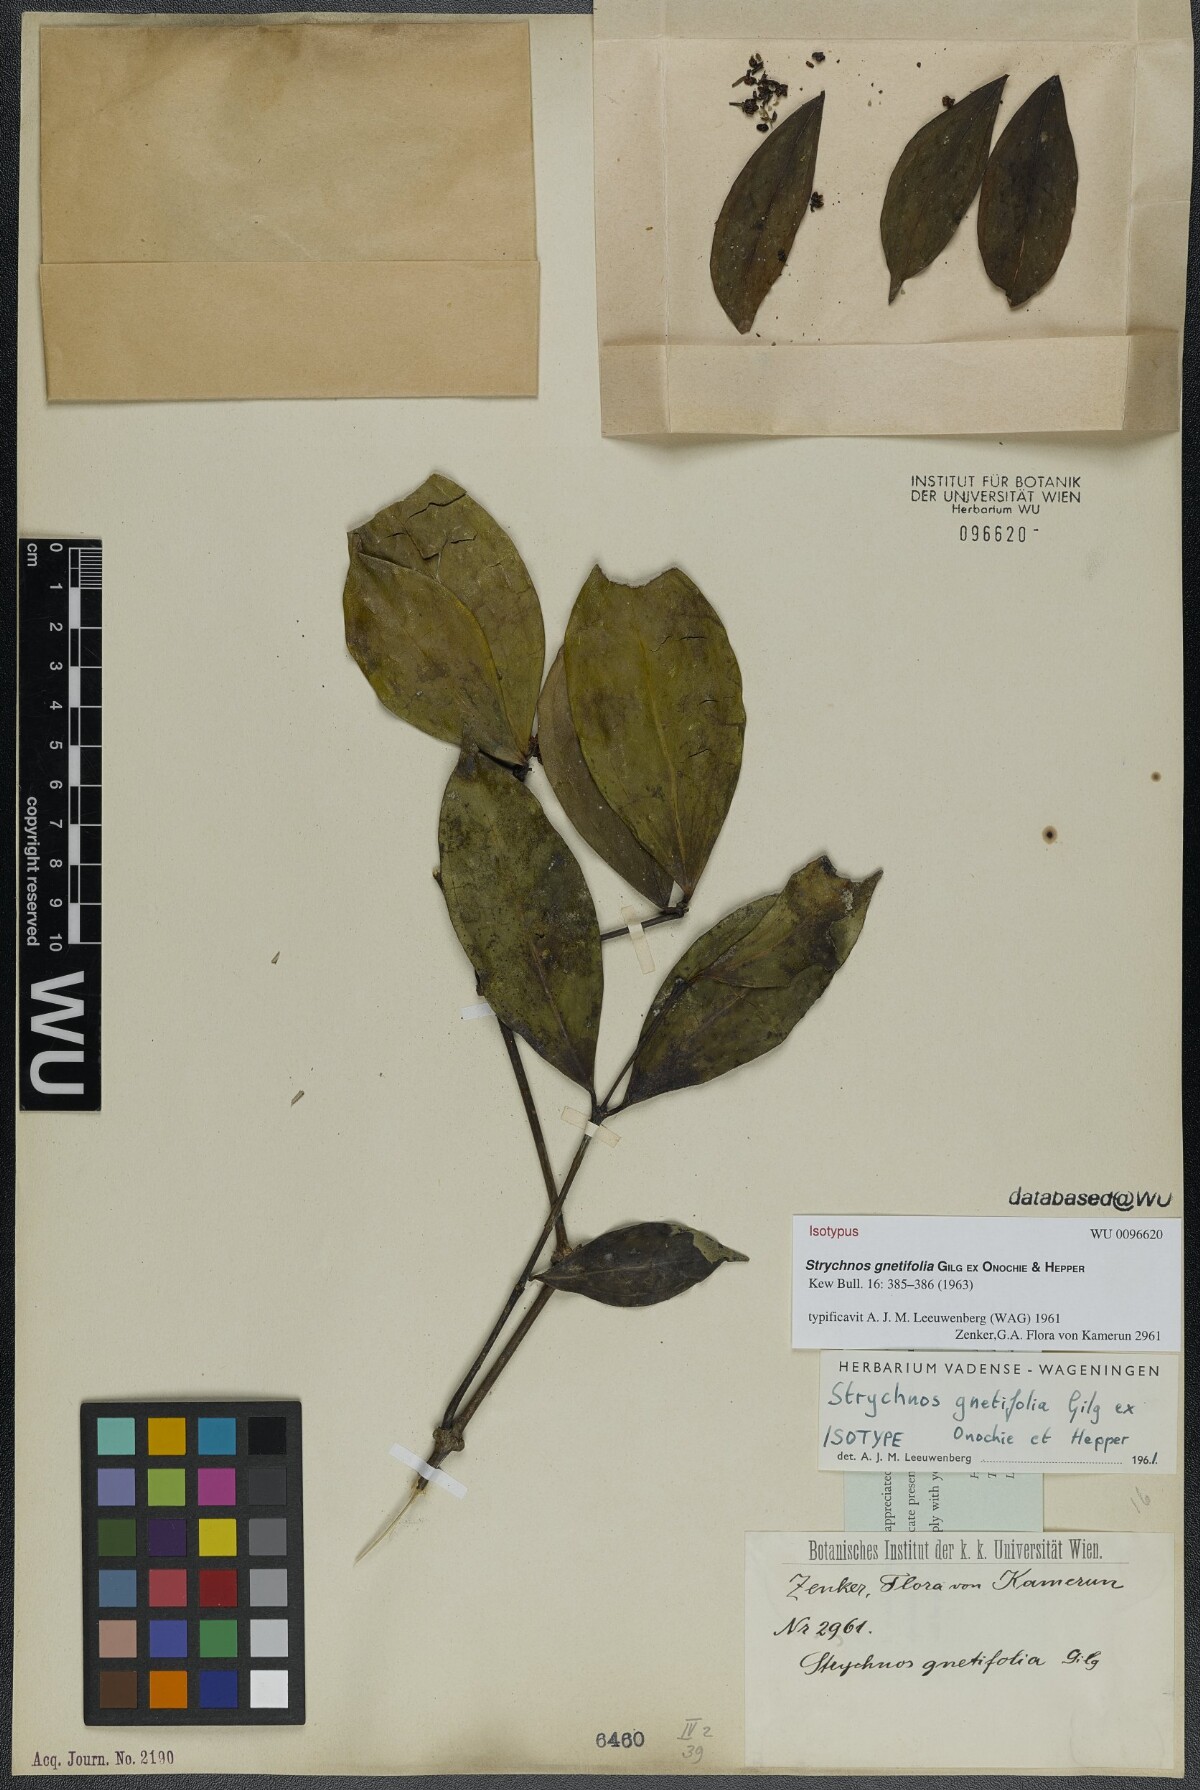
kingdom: Plantae
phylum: Tracheophyta
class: Magnoliopsida
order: Gentianales
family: Loganiaceae
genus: Strychnos
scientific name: Strychnos gnetifolia
